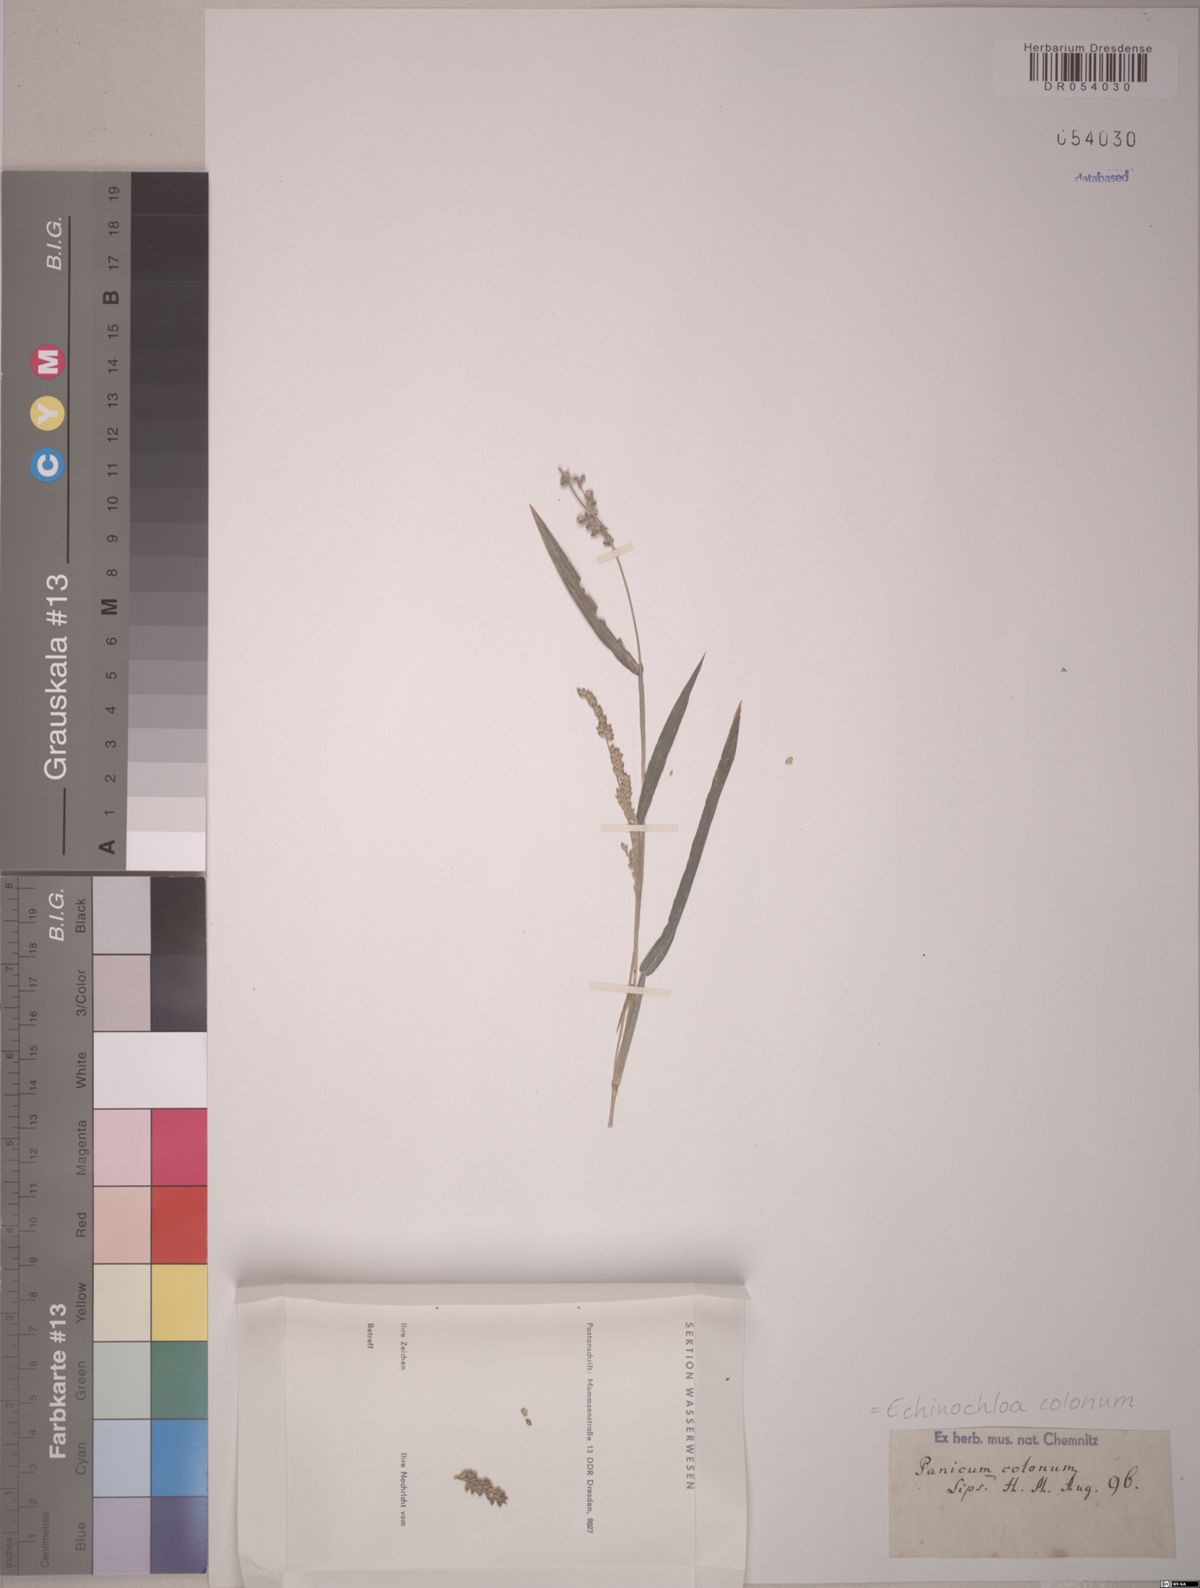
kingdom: Plantae
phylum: Tracheophyta
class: Liliopsida
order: Poales
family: Poaceae
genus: Echinochloa
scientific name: Echinochloa colonum
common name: Jungle rice
